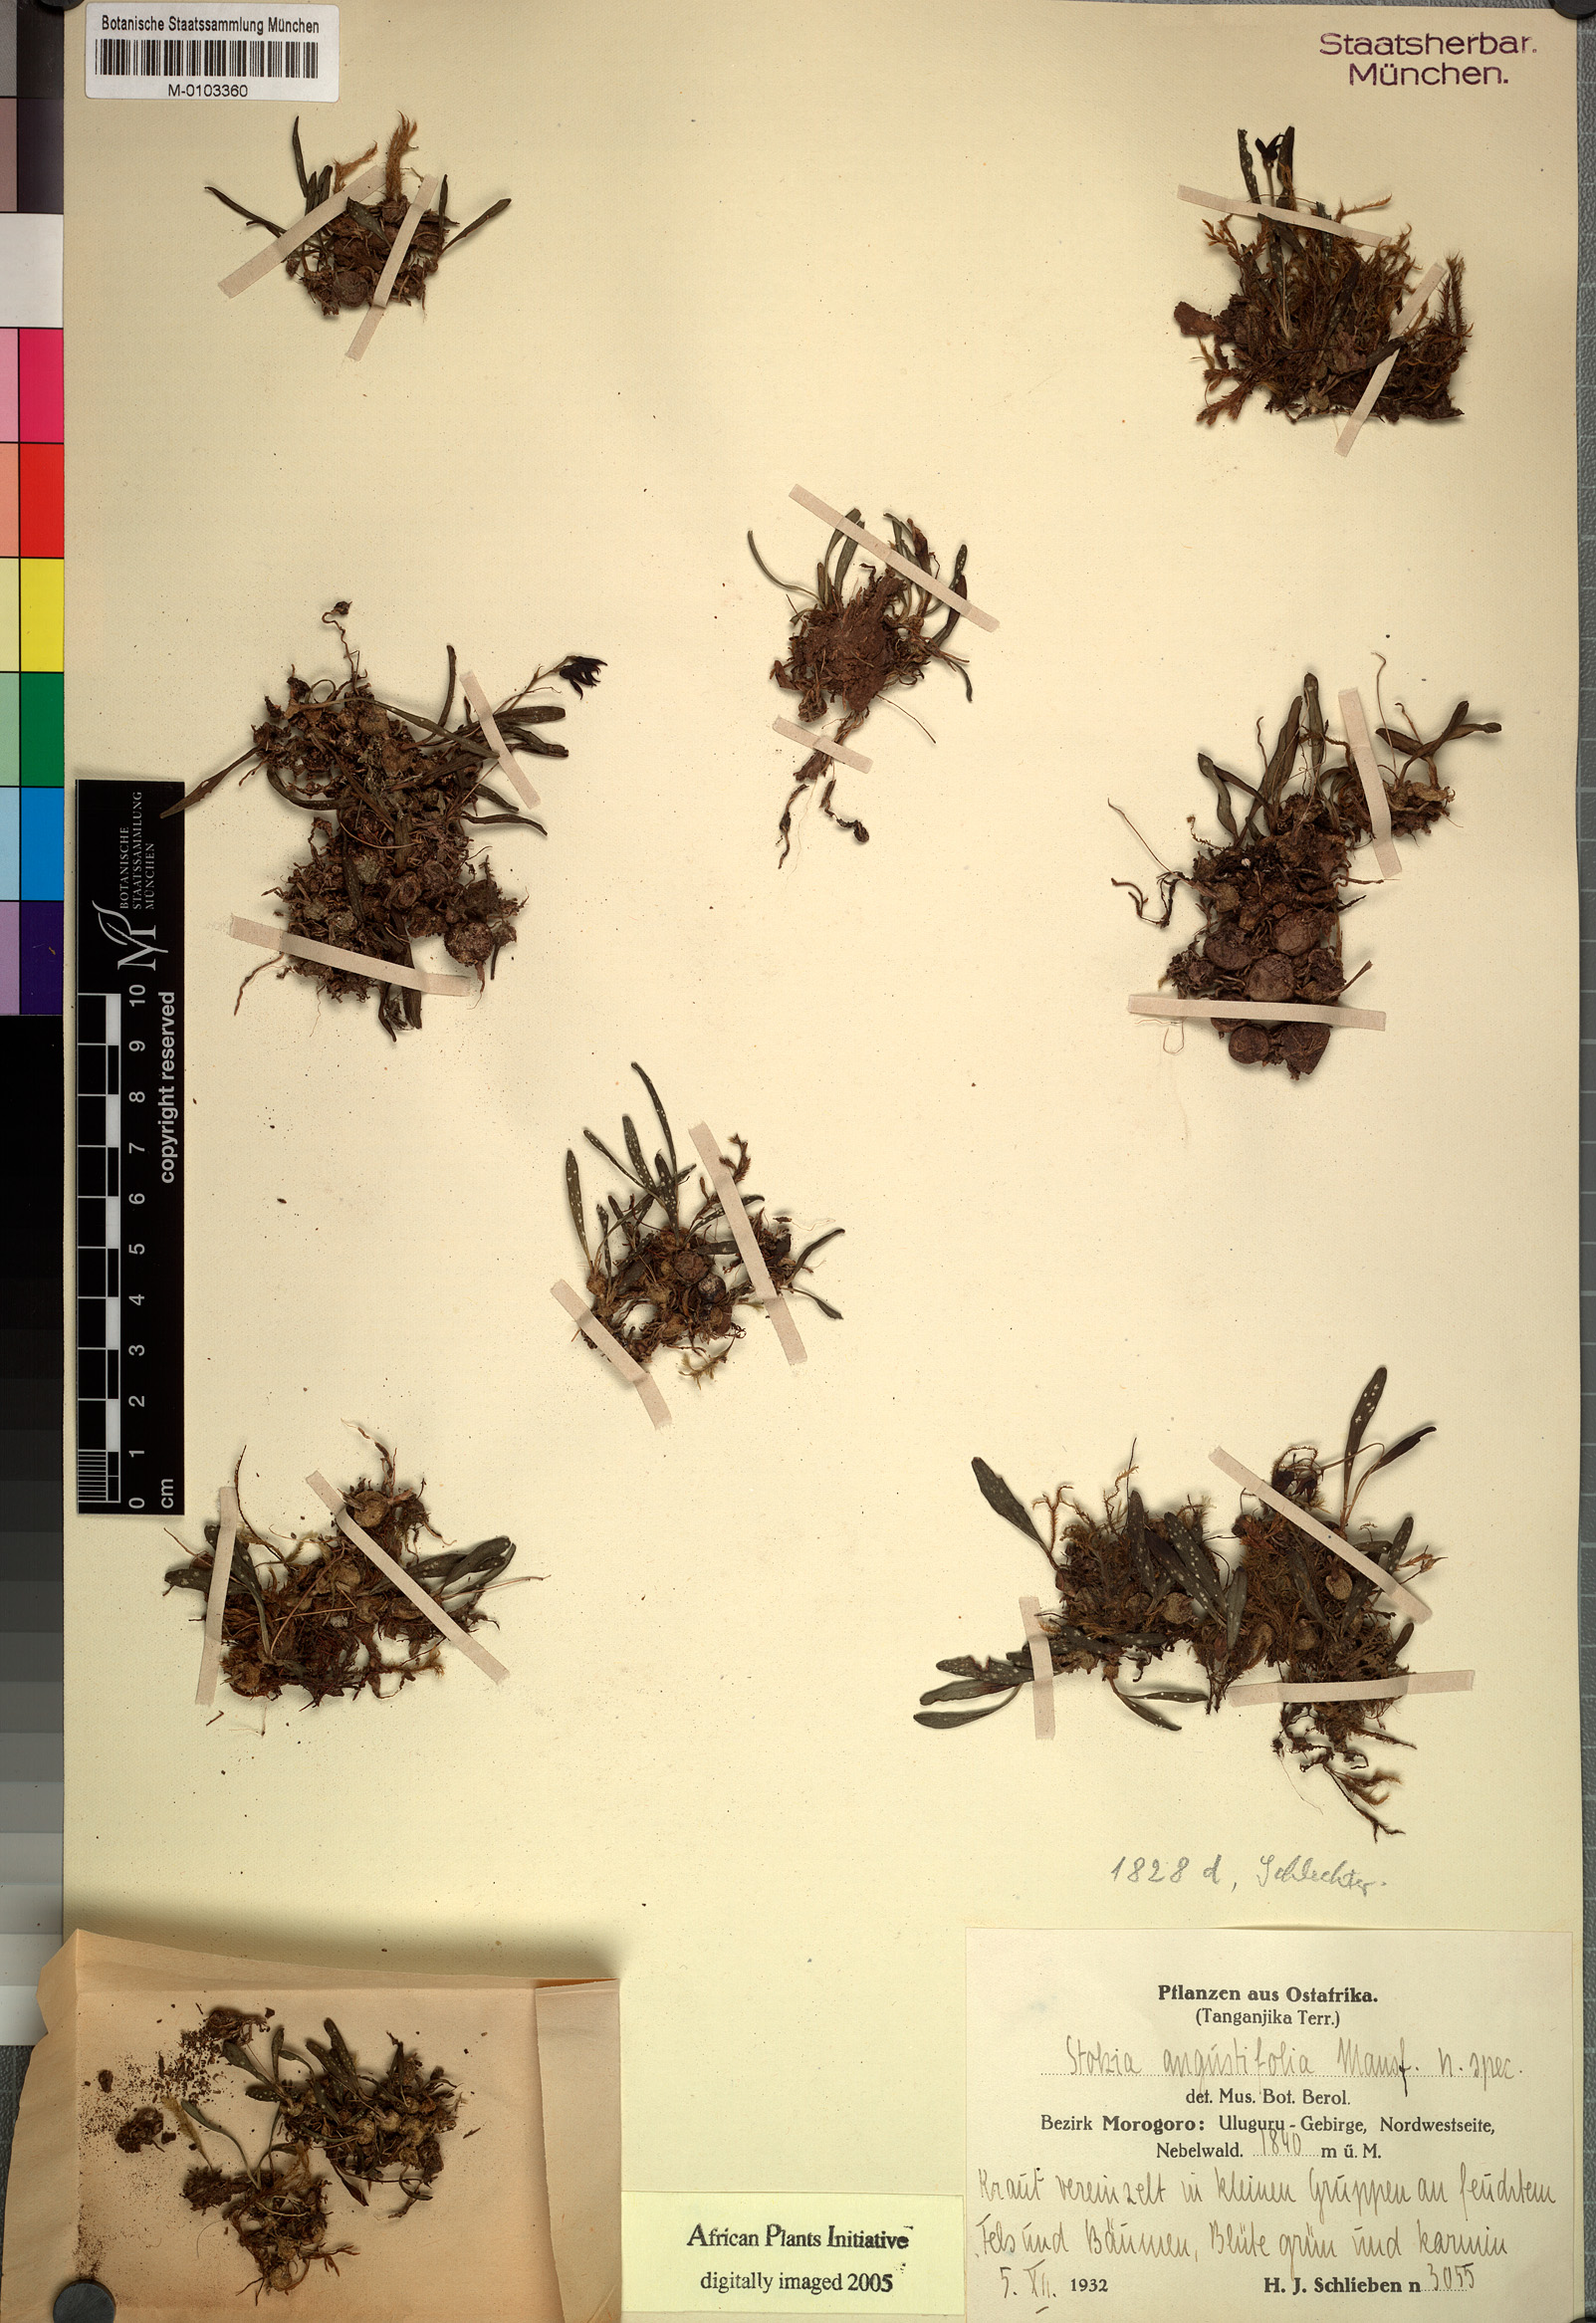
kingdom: Plantae
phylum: Tracheophyta
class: Liliopsida
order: Asparagales
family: Orchidaceae
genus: Porpax
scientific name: Porpax angustifolia
